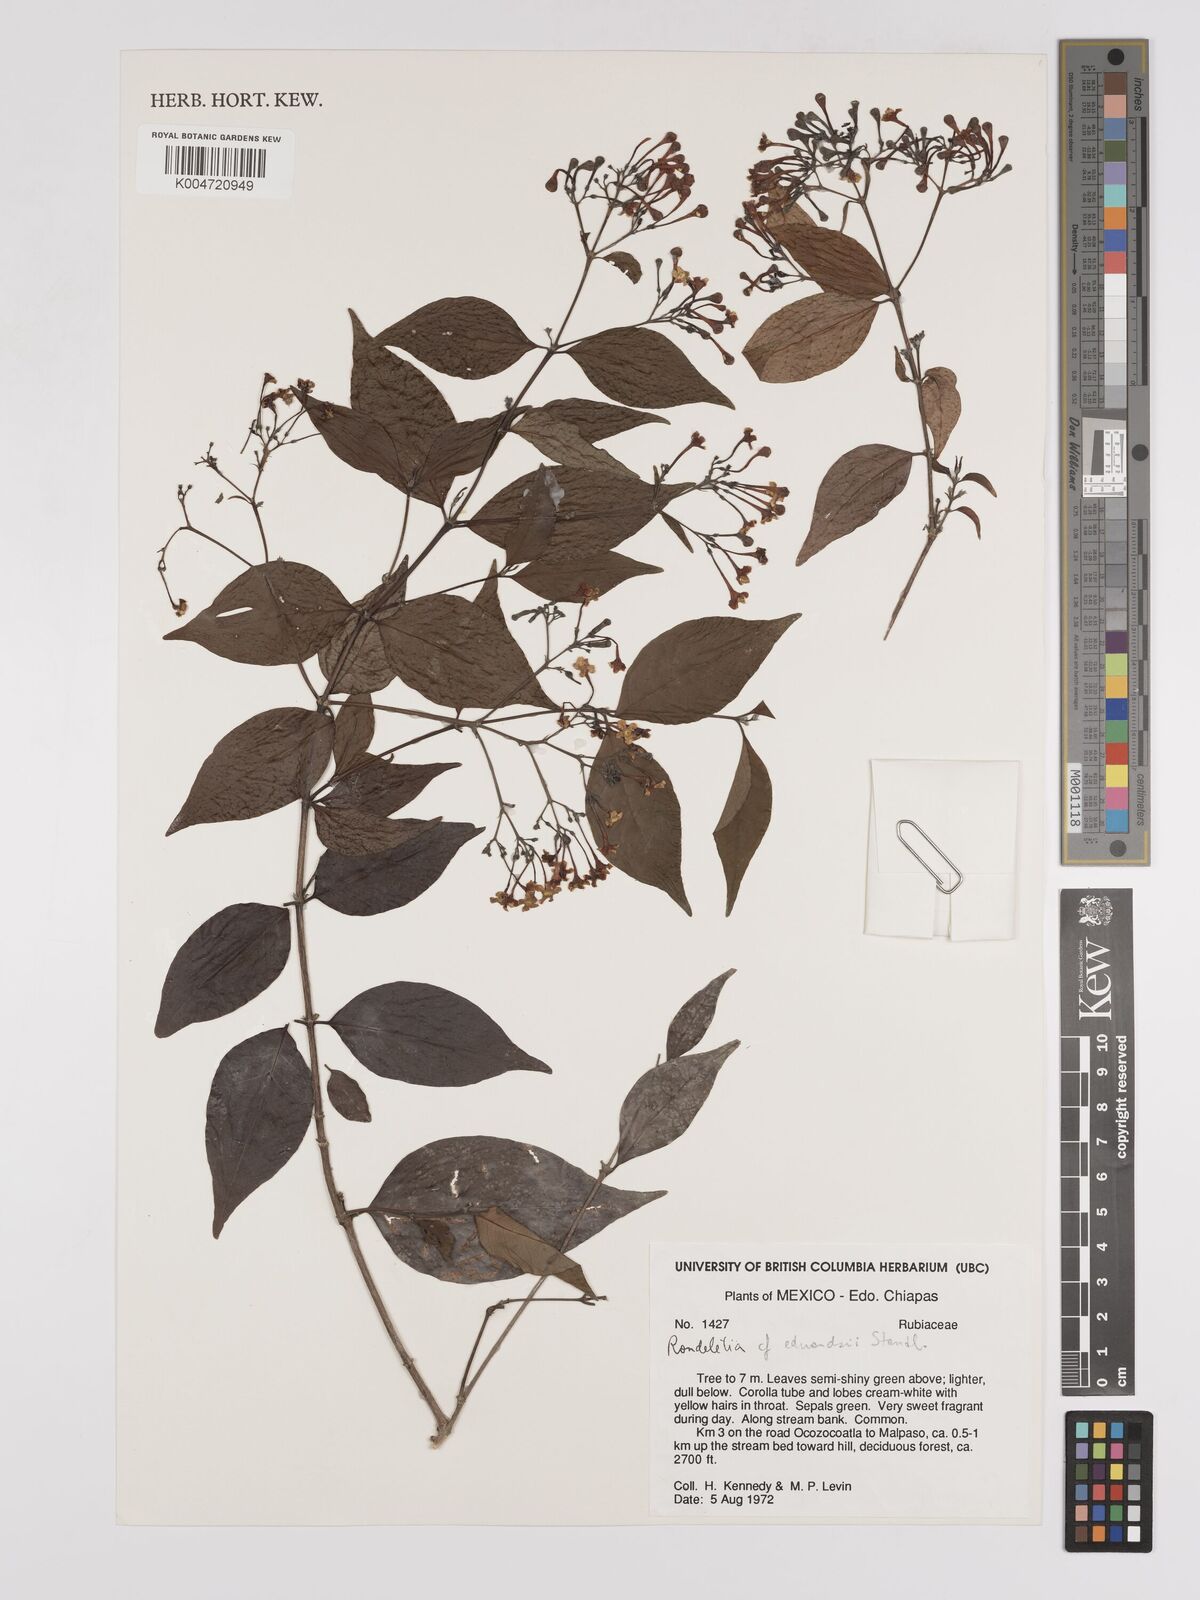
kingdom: Plantae
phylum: Tracheophyta
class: Magnoliopsida
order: Gentianales
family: Rubiaceae
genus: Rogiera
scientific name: Rogiera edwardsii
